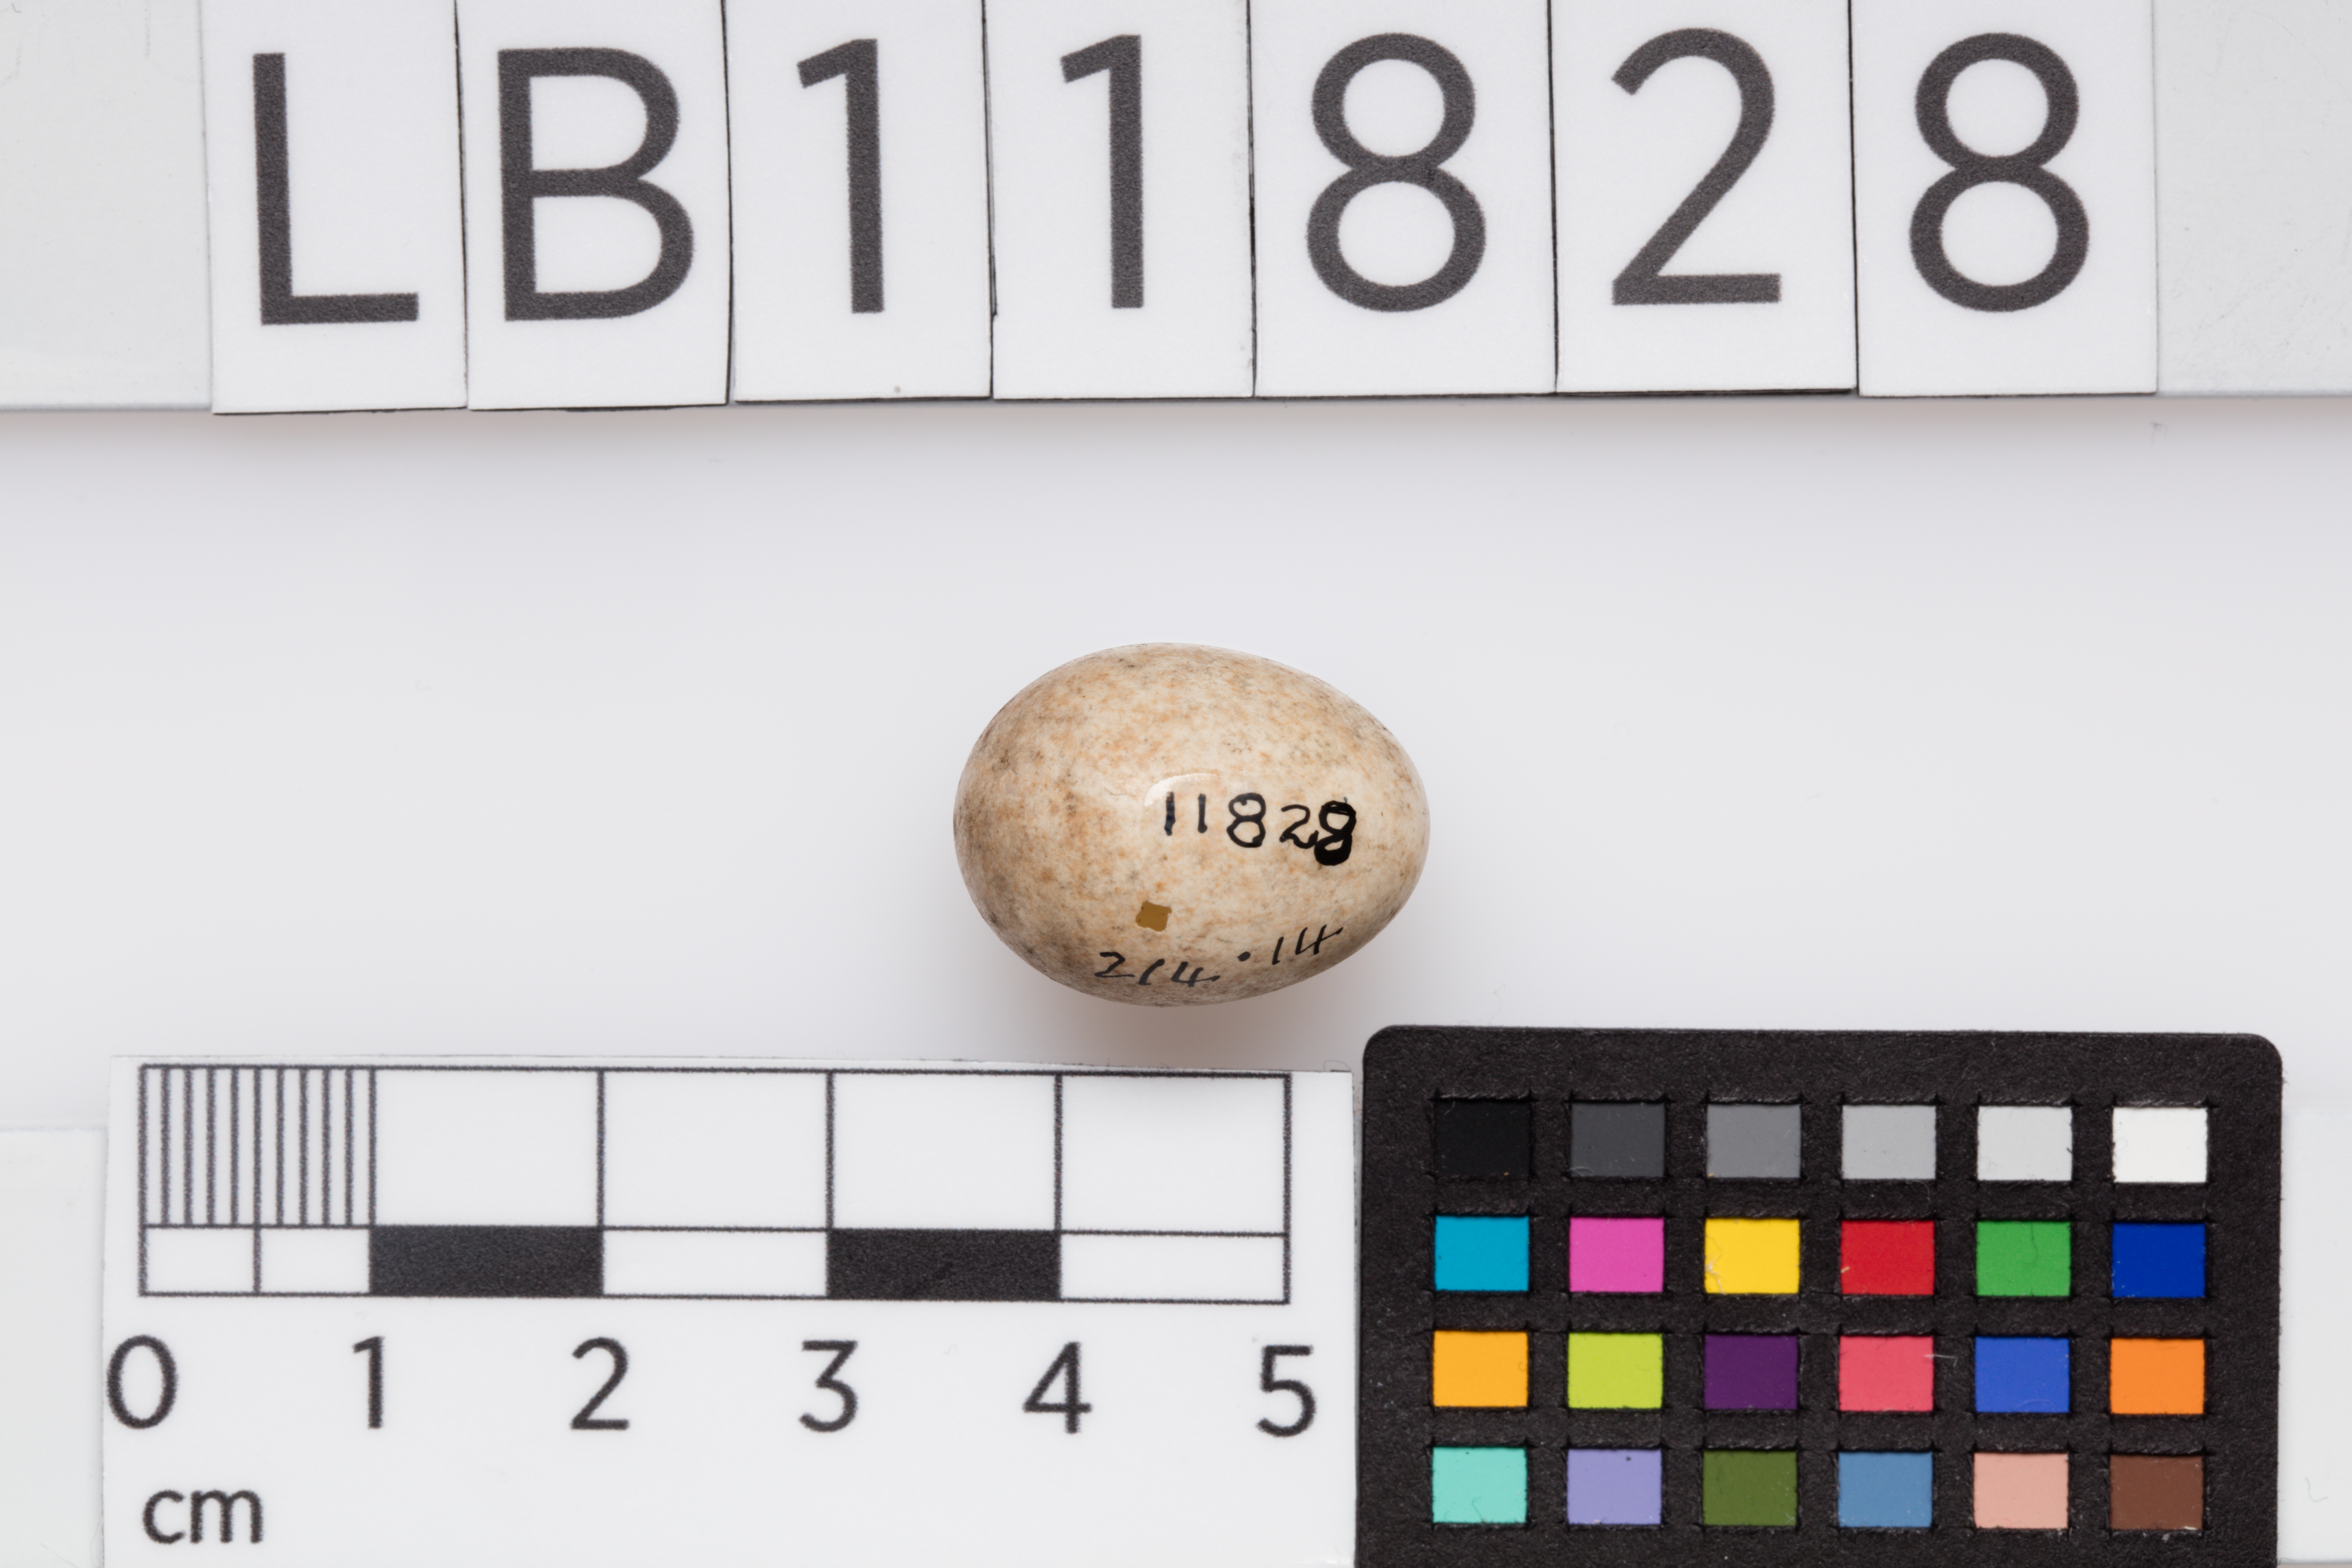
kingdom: Animalia
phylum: Chordata
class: Aves
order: Passeriformes
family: Muscicapidae
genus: Erithacus
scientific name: Erithacus rubecula
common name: European robin
